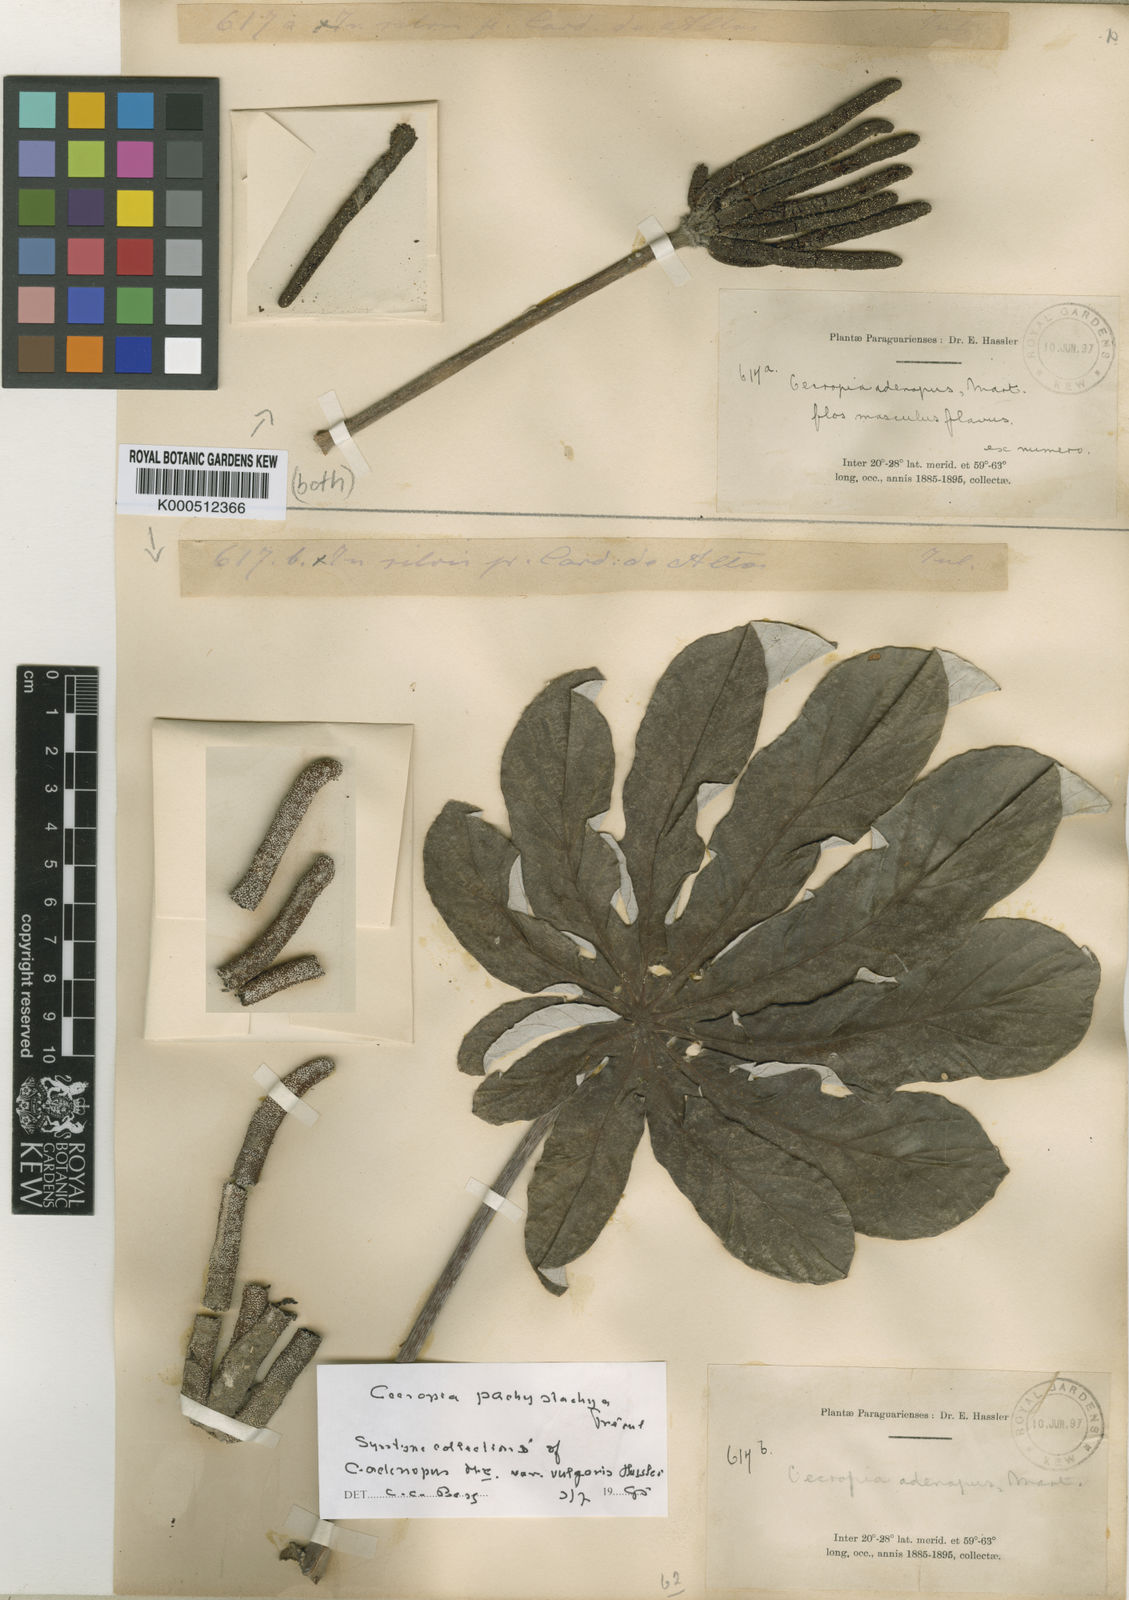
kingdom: Plantae
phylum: Tracheophyta
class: Magnoliopsida
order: Rosales
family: Urticaceae
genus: Cecropia
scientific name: Cecropia
